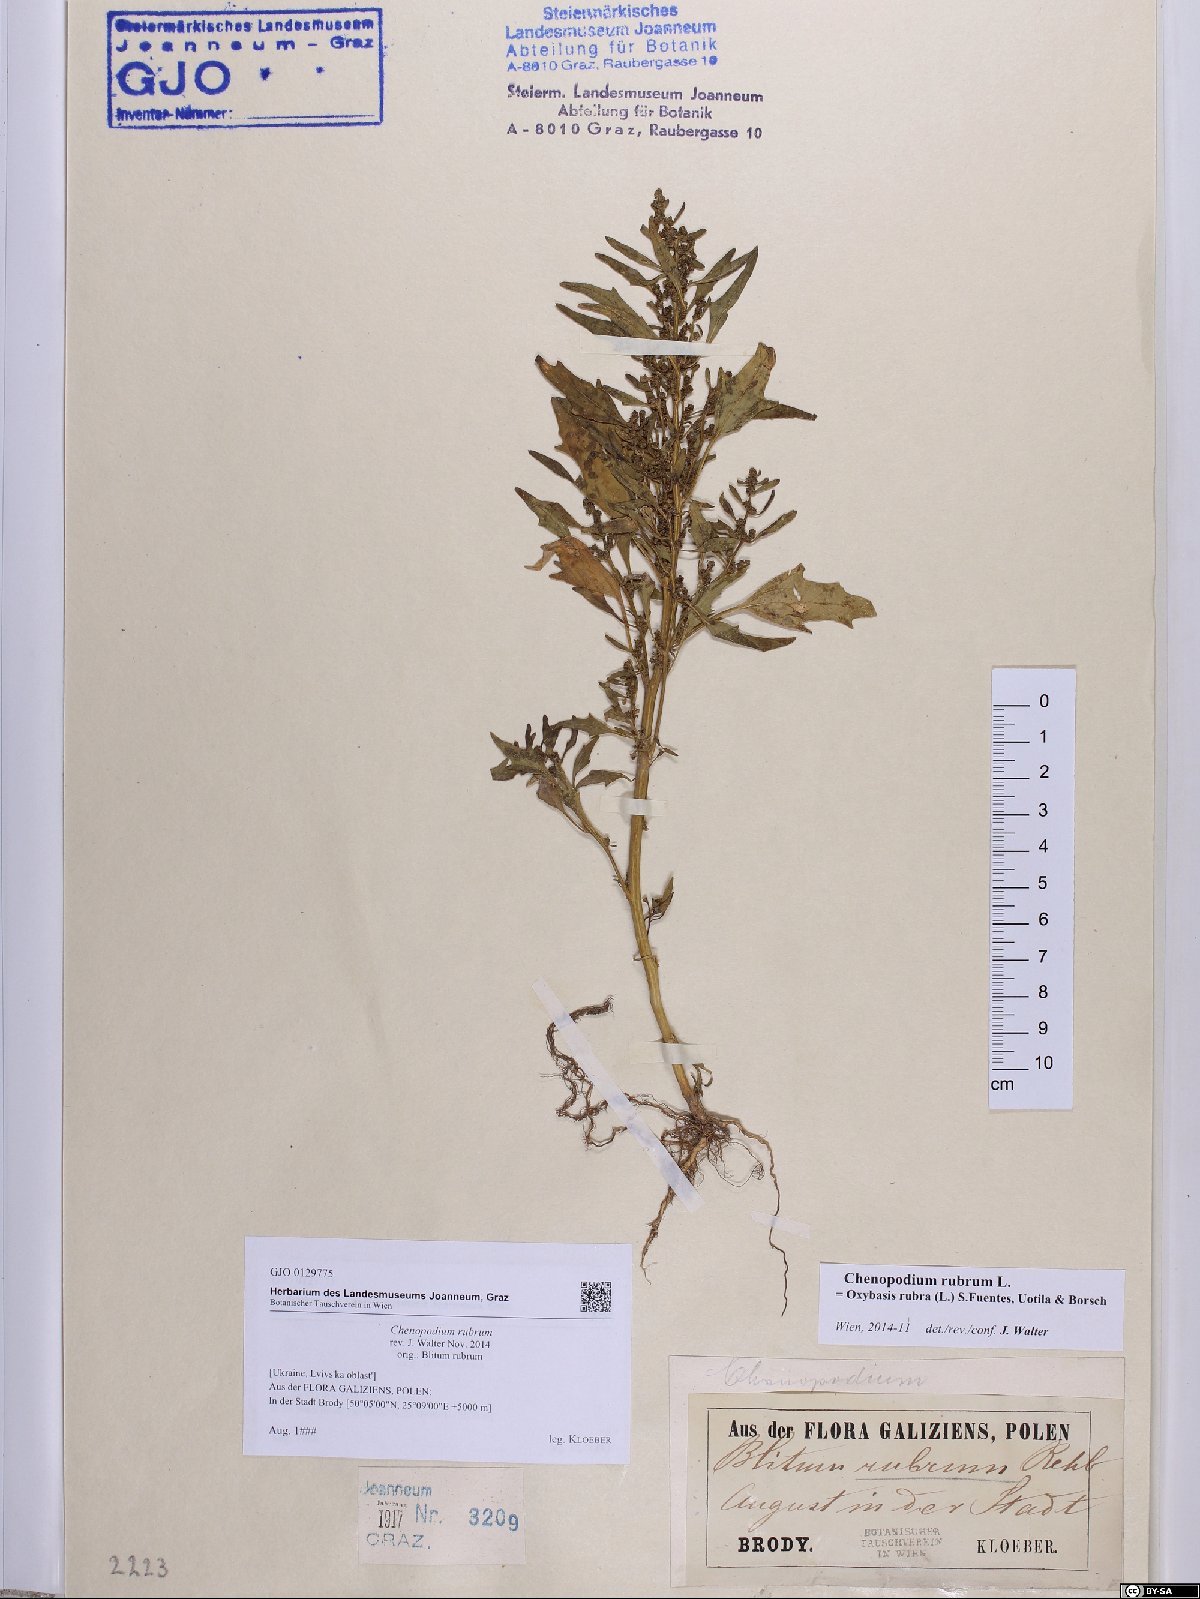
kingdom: Plantae
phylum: Tracheophyta
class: Magnoliopsida
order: Caryophyllales
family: Amaranthaceae
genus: Oxybasis
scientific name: Oxybasis rubra
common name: Red goosefoot
